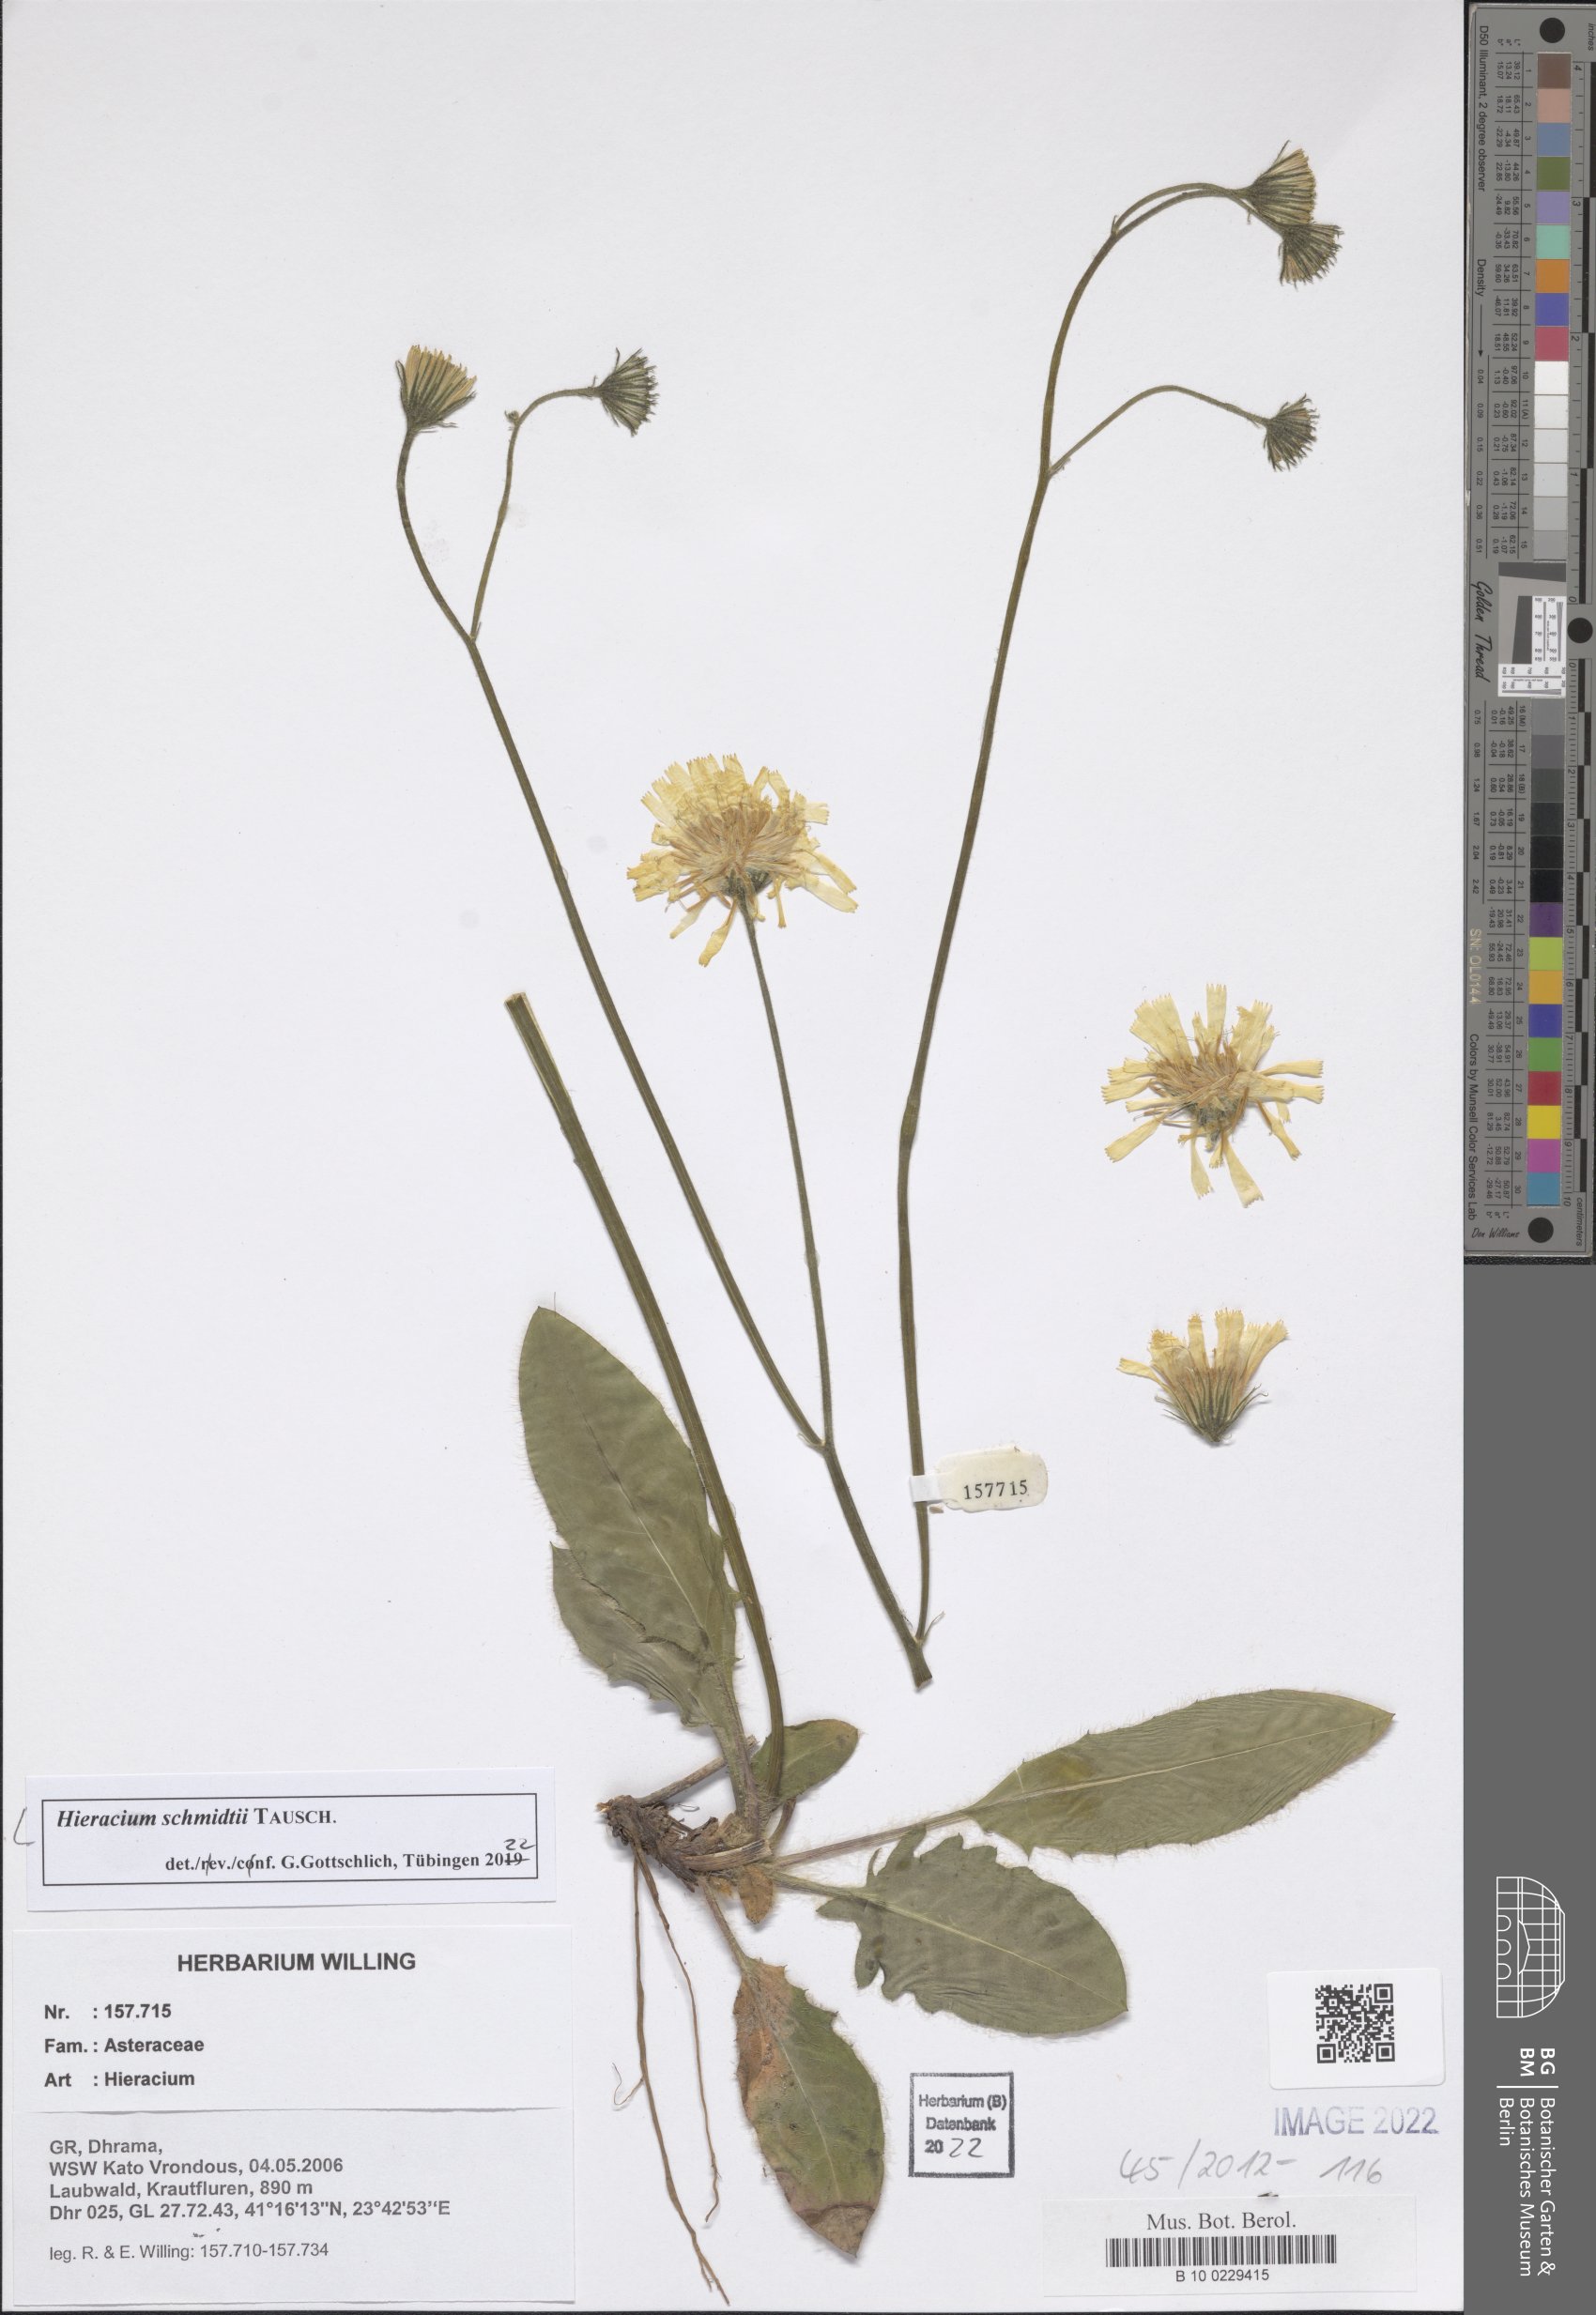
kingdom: Plantae
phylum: Tracheophyta
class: Magnoliopsida
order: Asterales
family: Asteraceae
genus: Hieracium
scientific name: Hieracium schmidtii
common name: Schmidt's hawkweed
